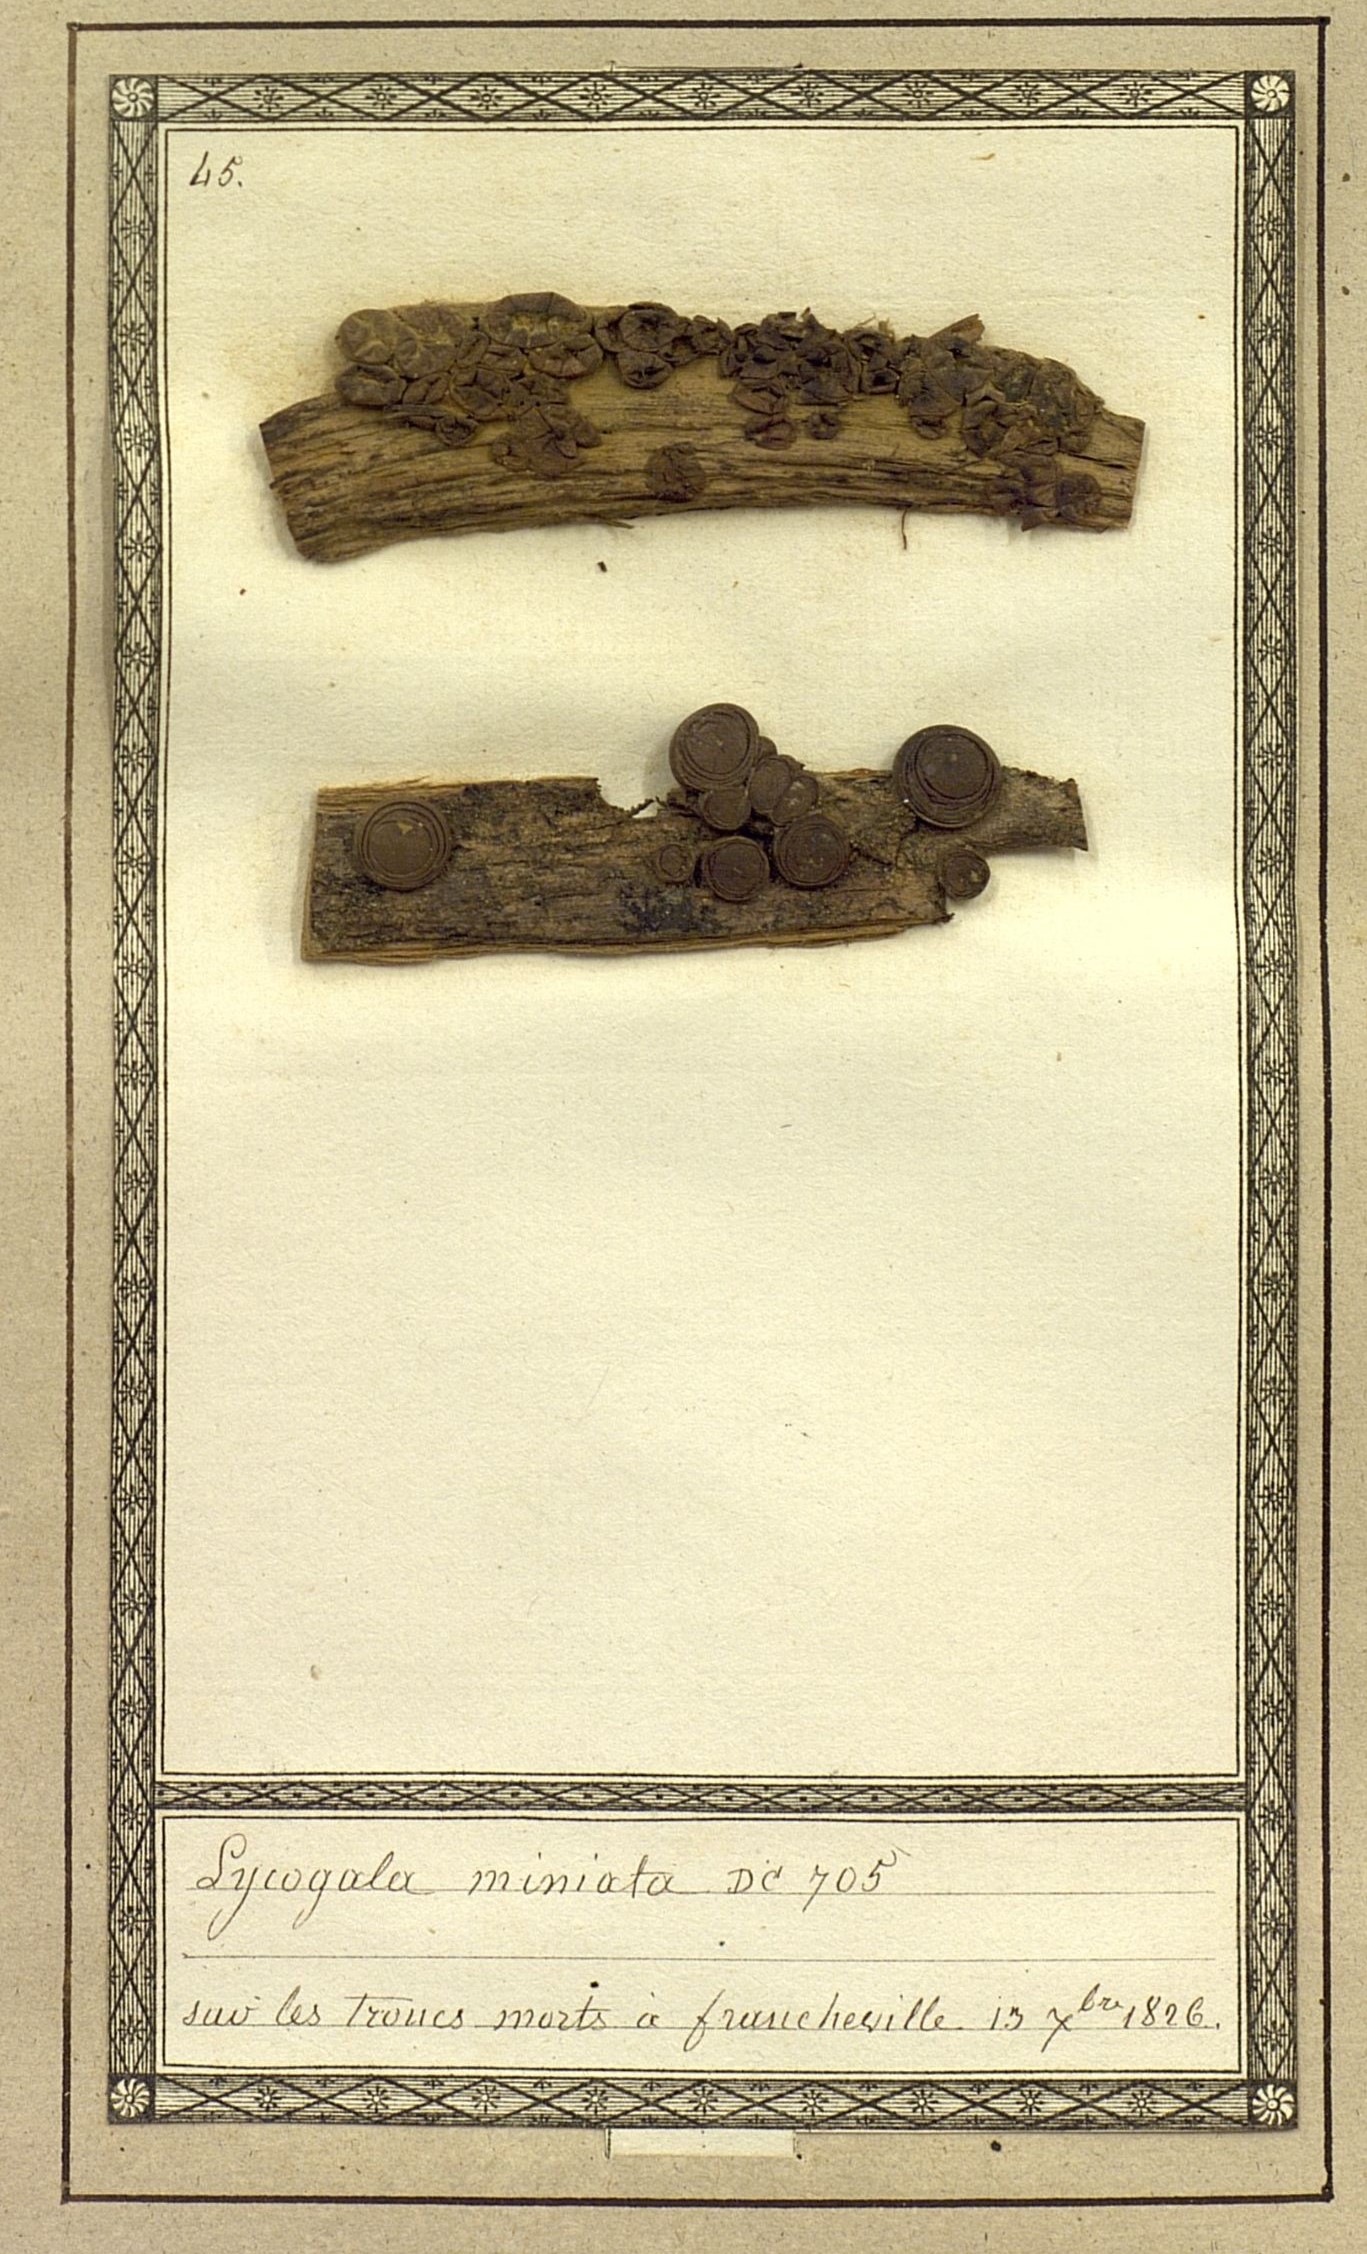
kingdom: Protozoa
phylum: Mycetozoa
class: Myxomycetes
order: Cribrariales
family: Tubiferaceae
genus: Lycogala
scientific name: Lycogala epidendrum
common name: Wolf's milk
